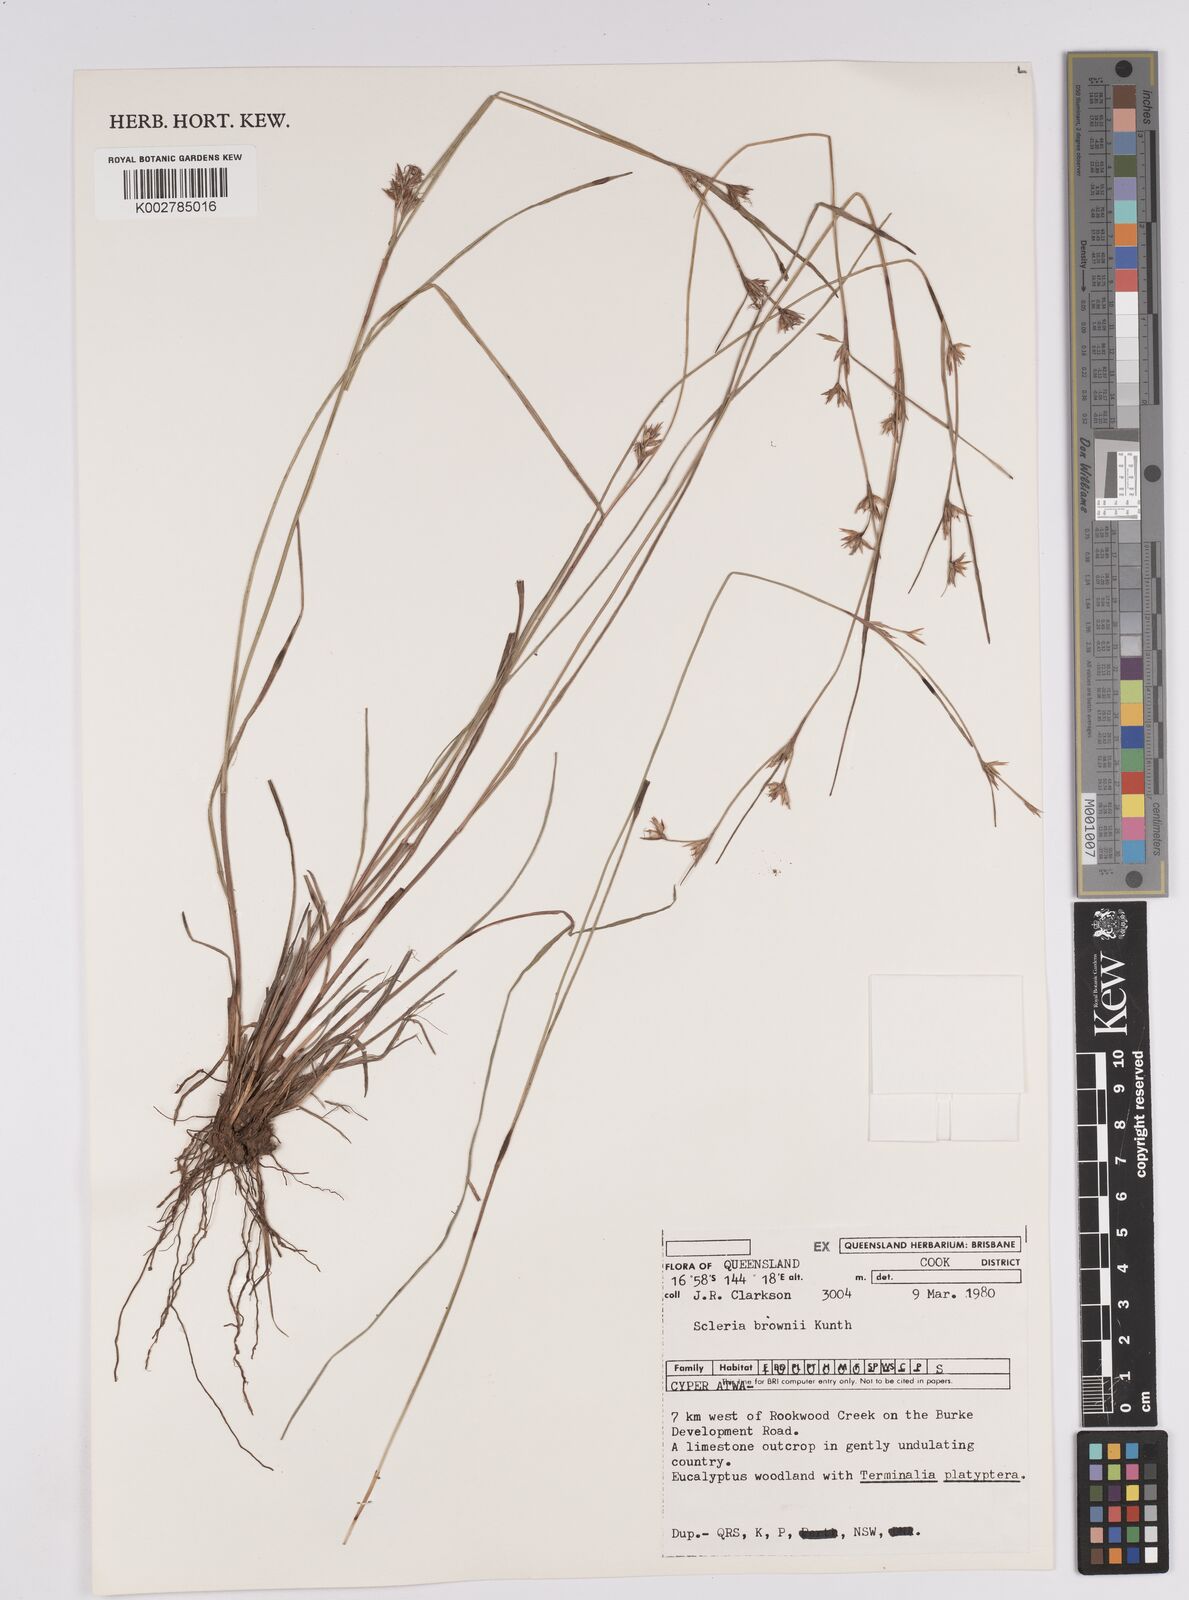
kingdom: Plantae
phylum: Tracheophyta
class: Liliopsida
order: Poales
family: Cyperaceae
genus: Scleria
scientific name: Scleria brownii
